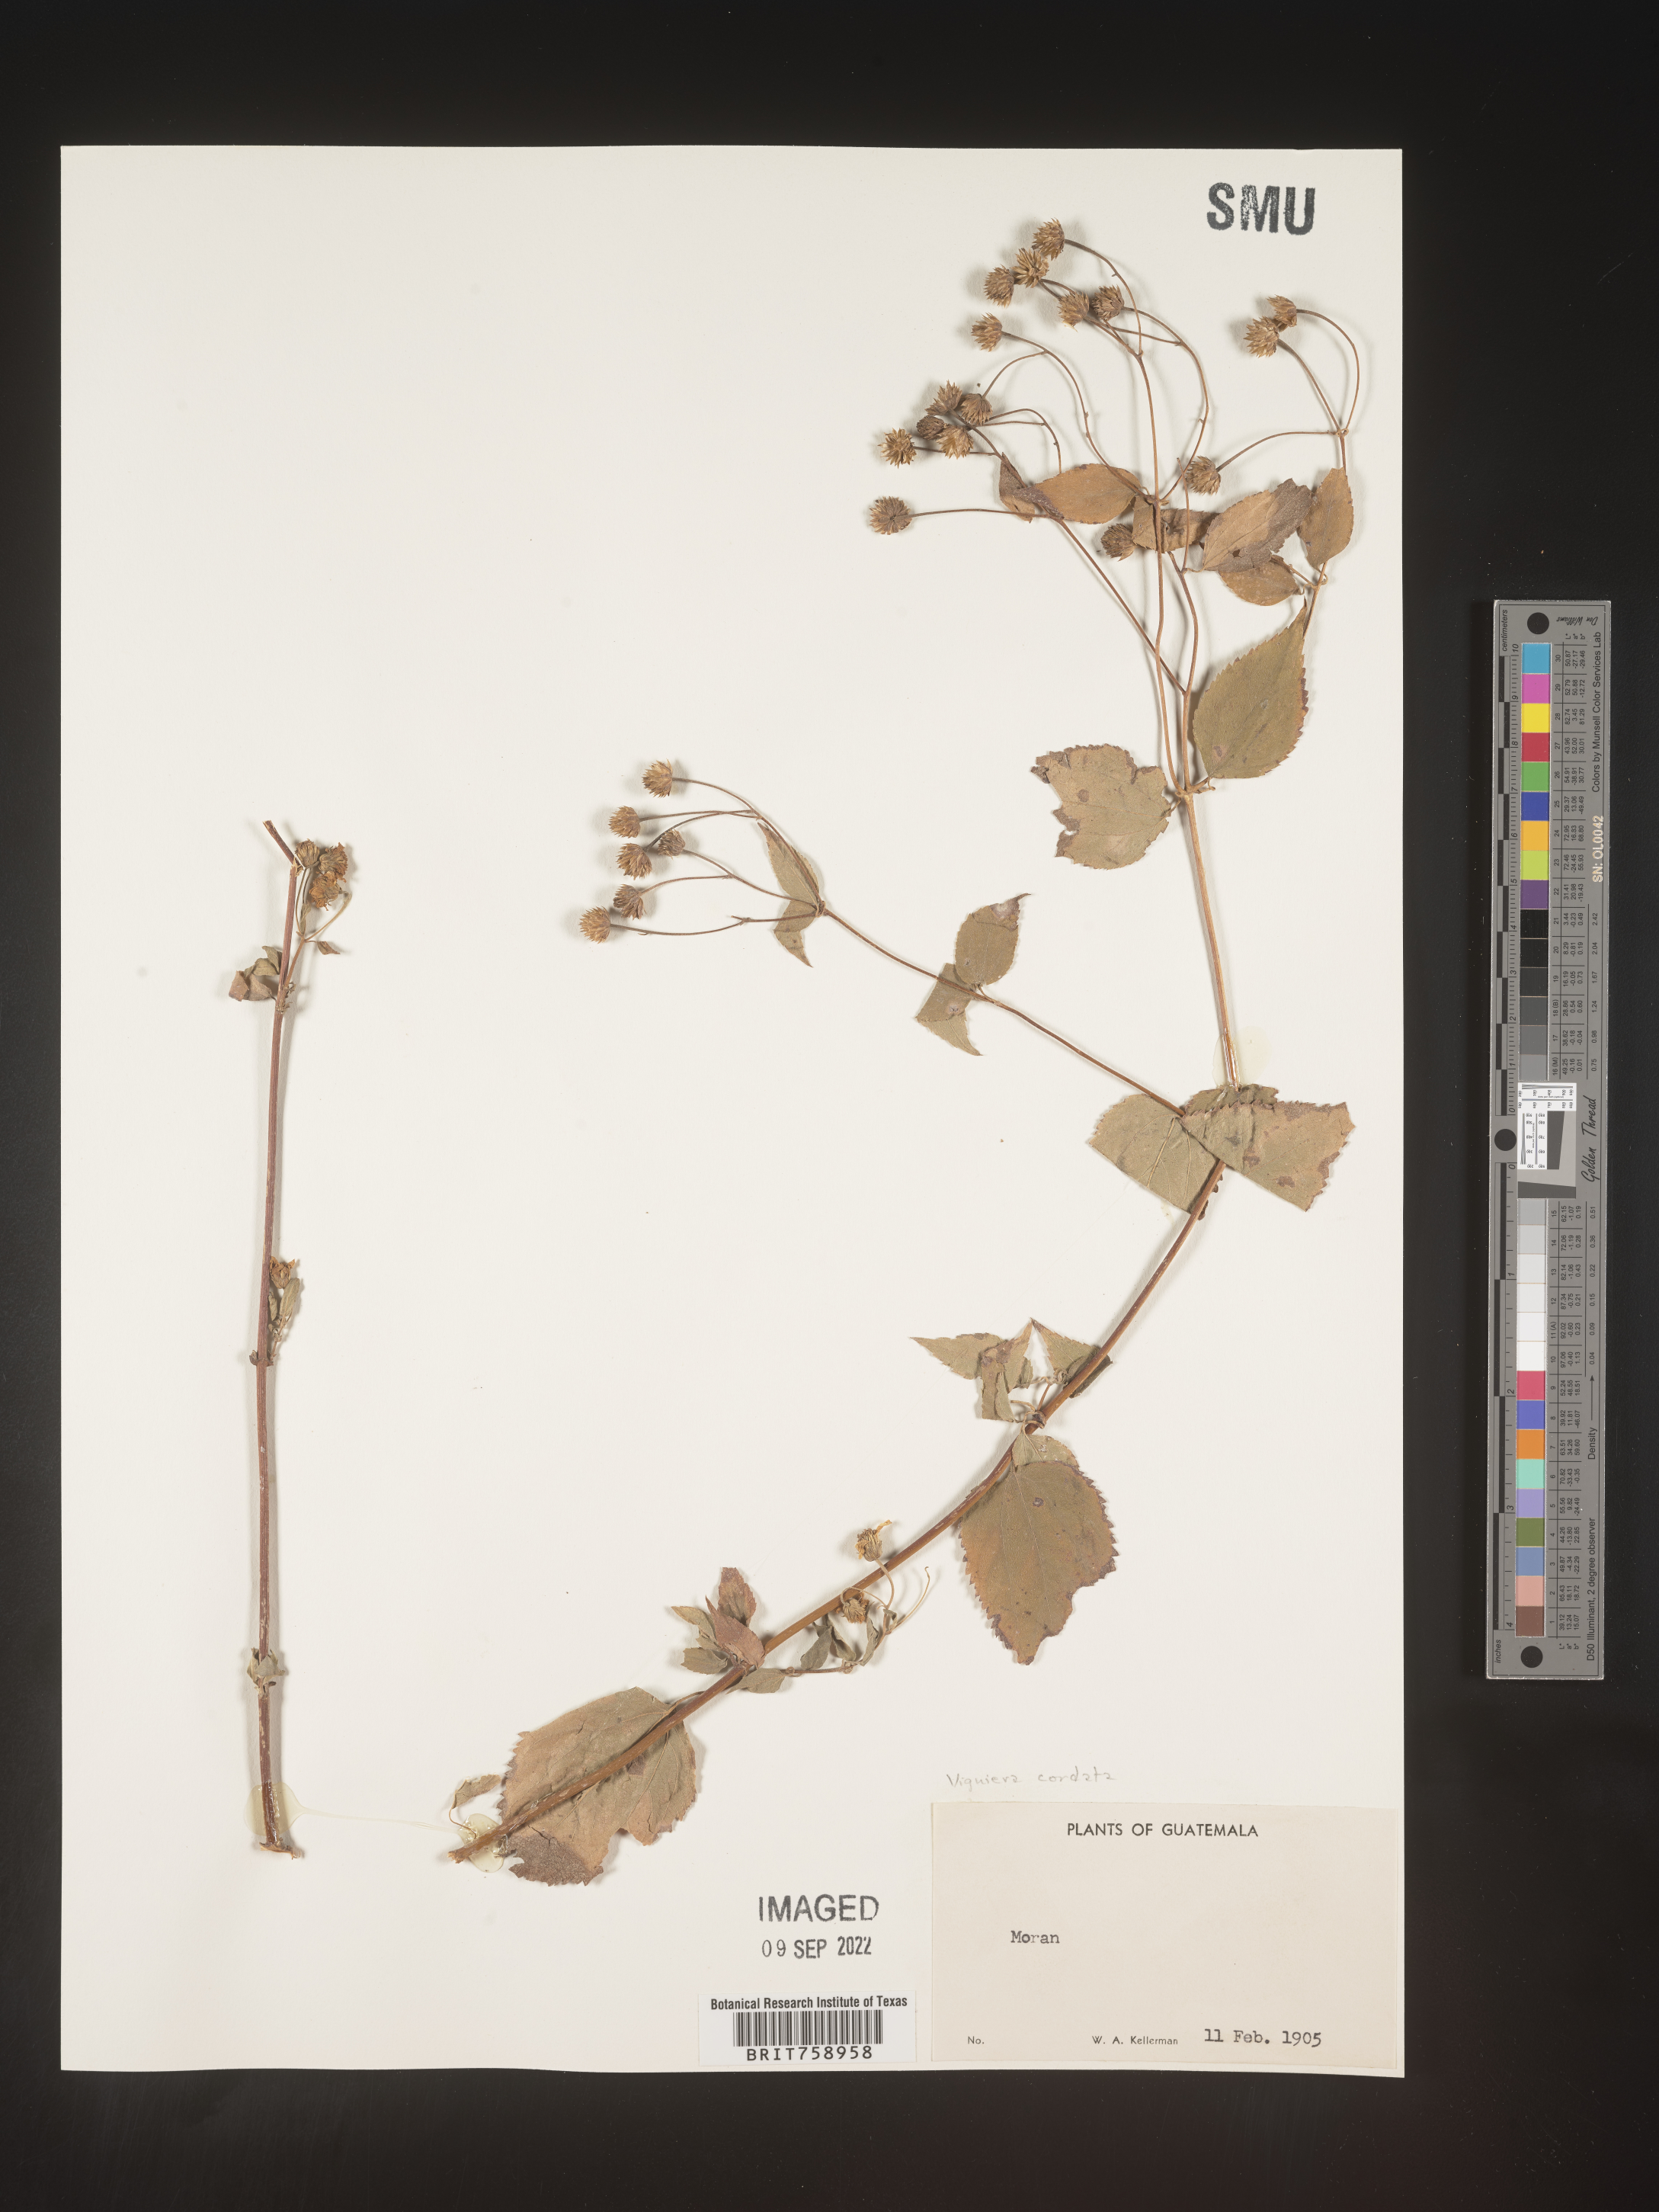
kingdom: Plantae
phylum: Tracheophyta
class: Magnoliopsida
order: Asterales
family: Asteraceae
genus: Viguiera
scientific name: Viguiera
